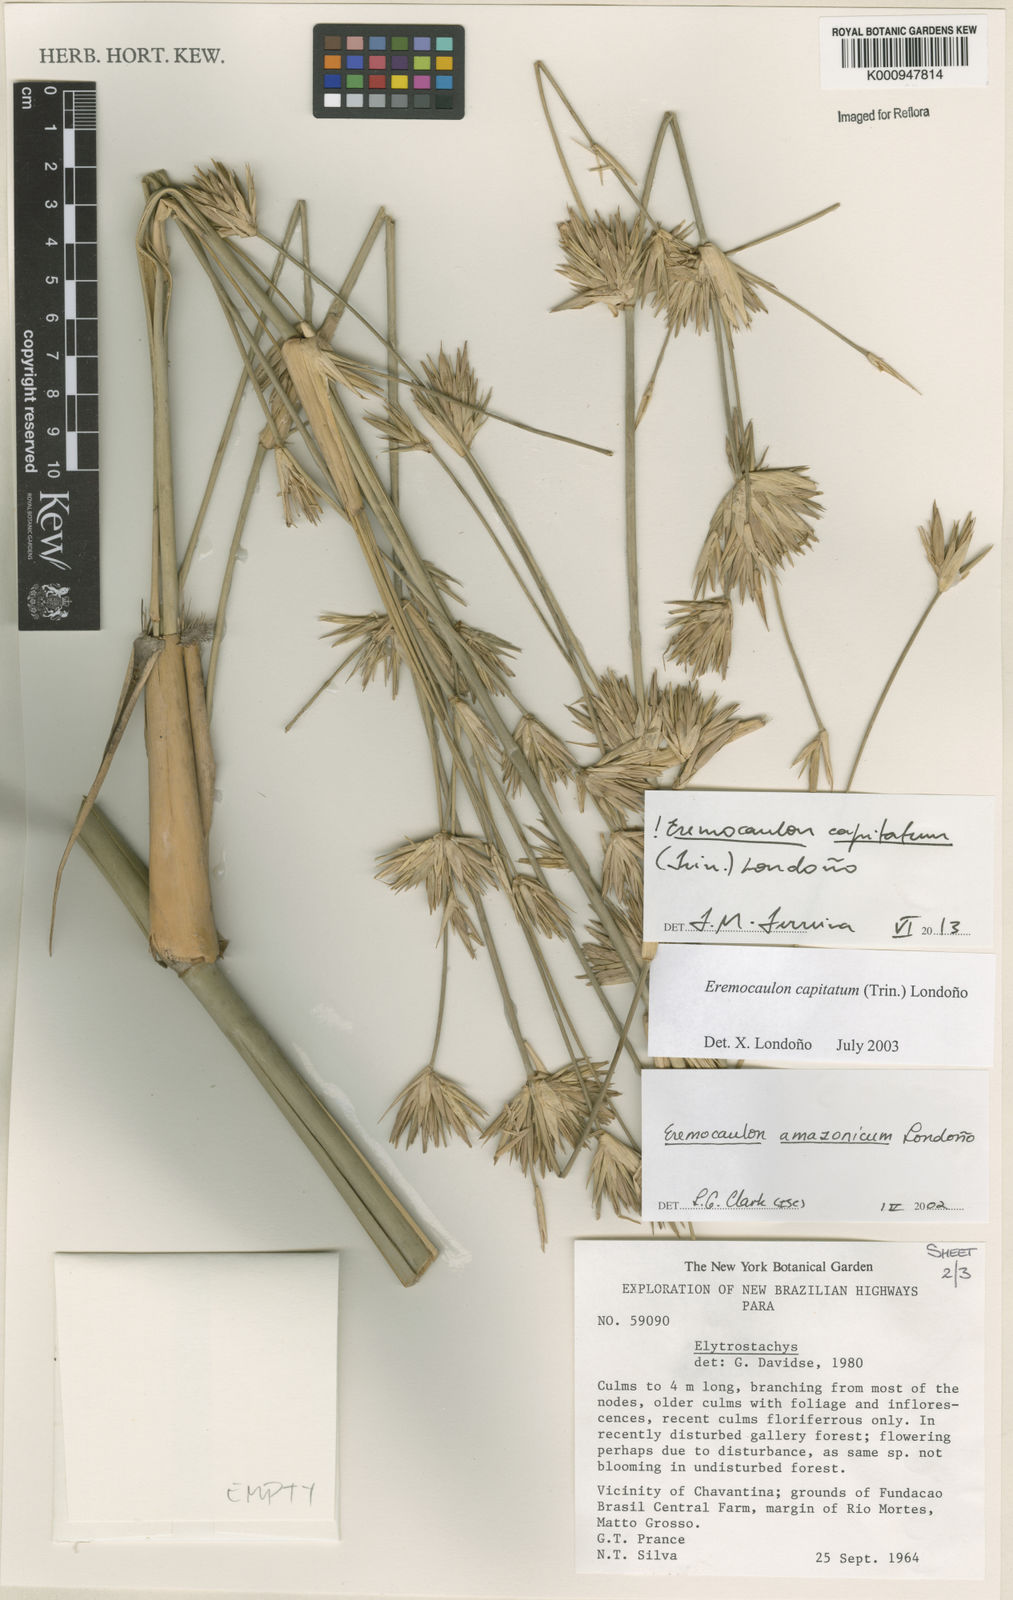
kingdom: Plantae
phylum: Tracheophyta
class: Liliopsida
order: Poales
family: Poaceae
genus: Eremocaulon
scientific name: Eremocaulon
